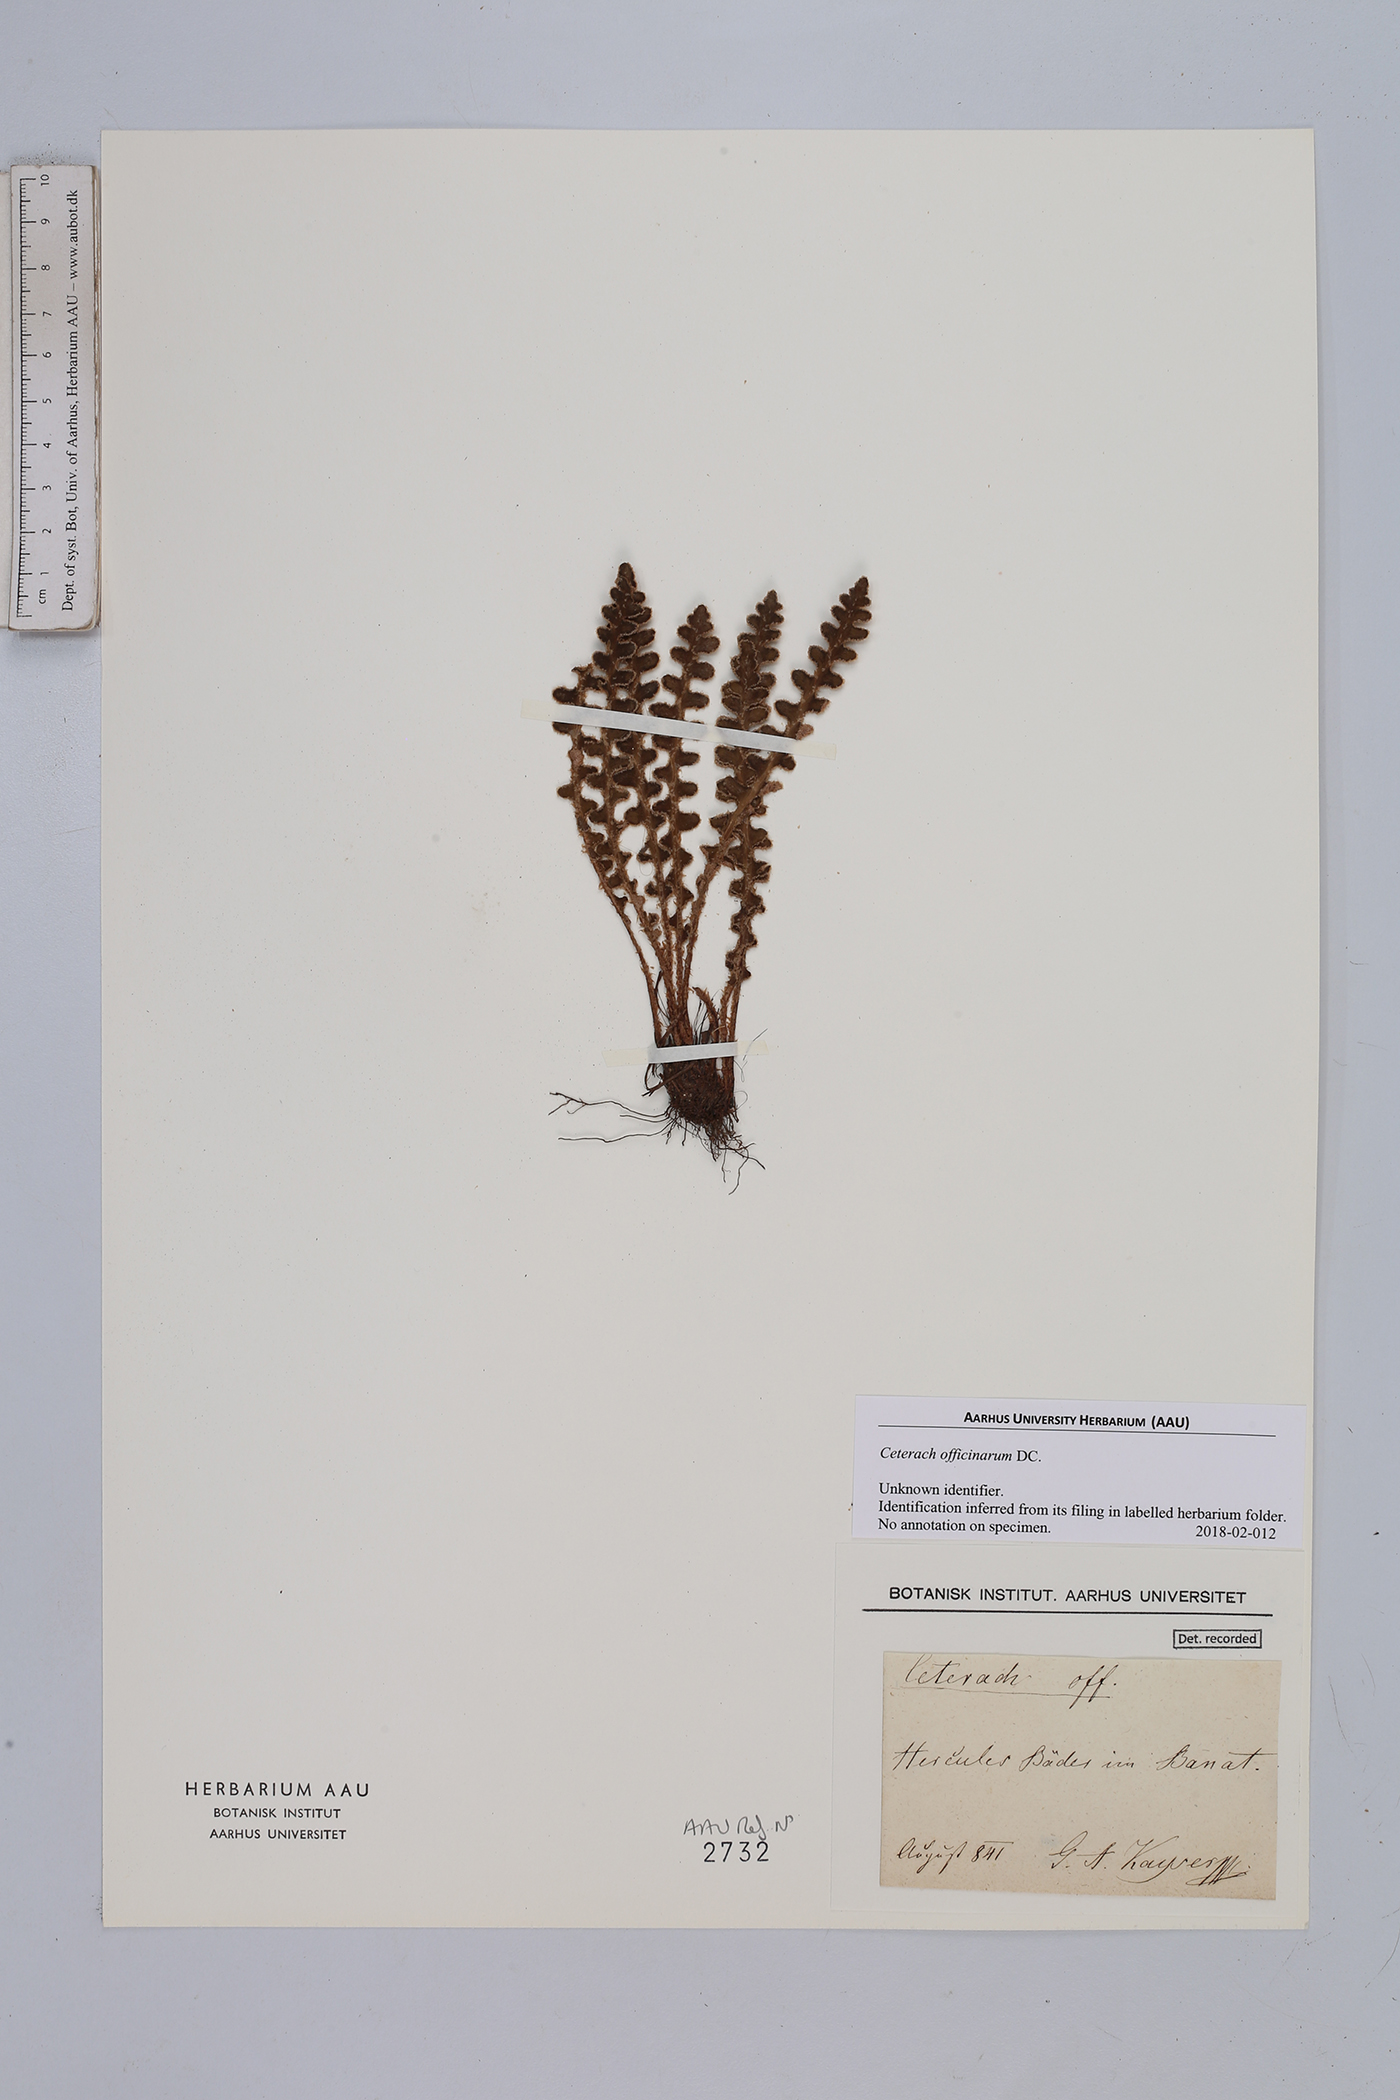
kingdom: Plantae
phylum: Tracheophyta
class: Polypodiopsida
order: Polypodiales
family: Aspleniaceae
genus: Asplenium
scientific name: Asplenium ceterach
